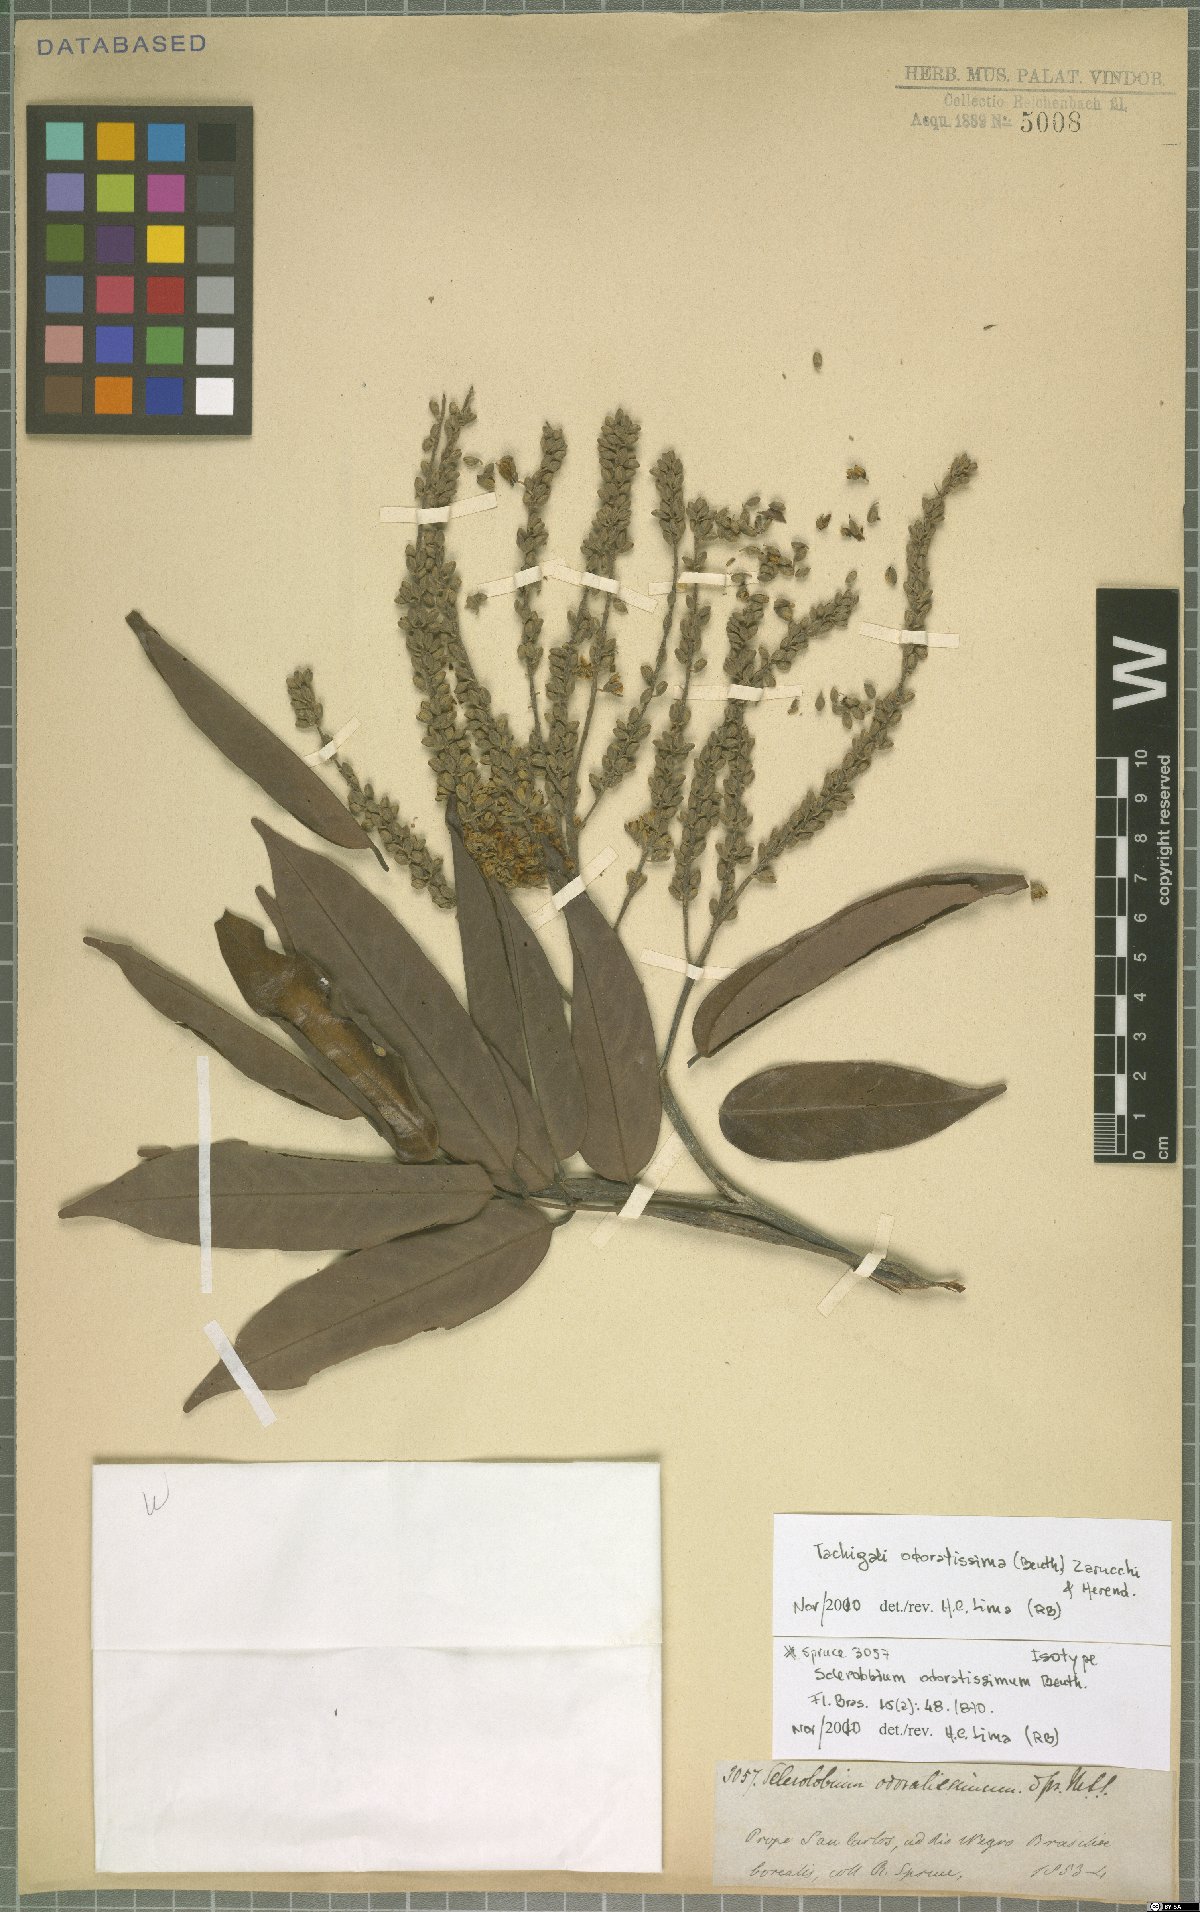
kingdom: Plantae
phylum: Tracheophyta
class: Magnoliopsida
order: Fabales
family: Fabaceae
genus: Tachigali
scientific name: Tachigali odoratissima
